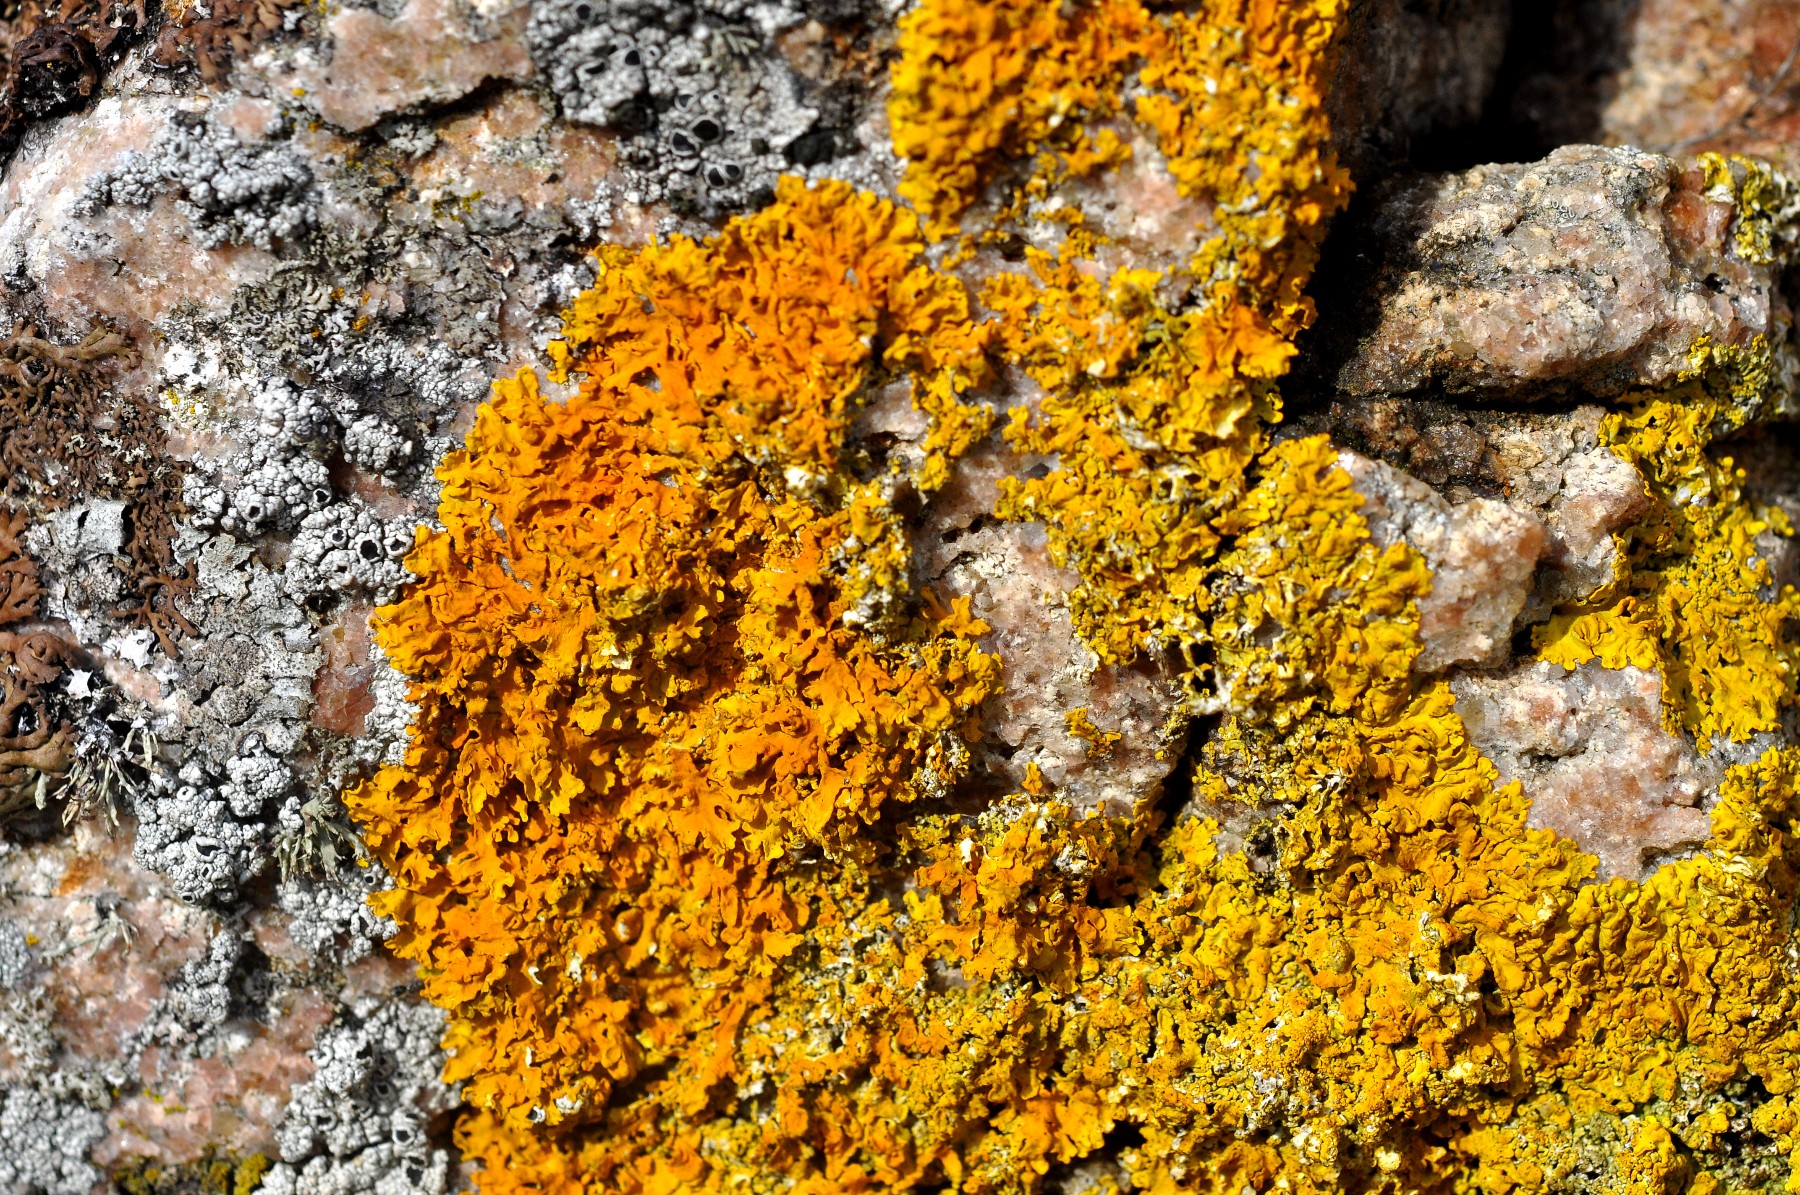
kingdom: Fungi
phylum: Ascomycota
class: Lecanoromycetes
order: Teloschistales
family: Teloschistaceae
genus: Xanthoria
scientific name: Xanthoria aureola
